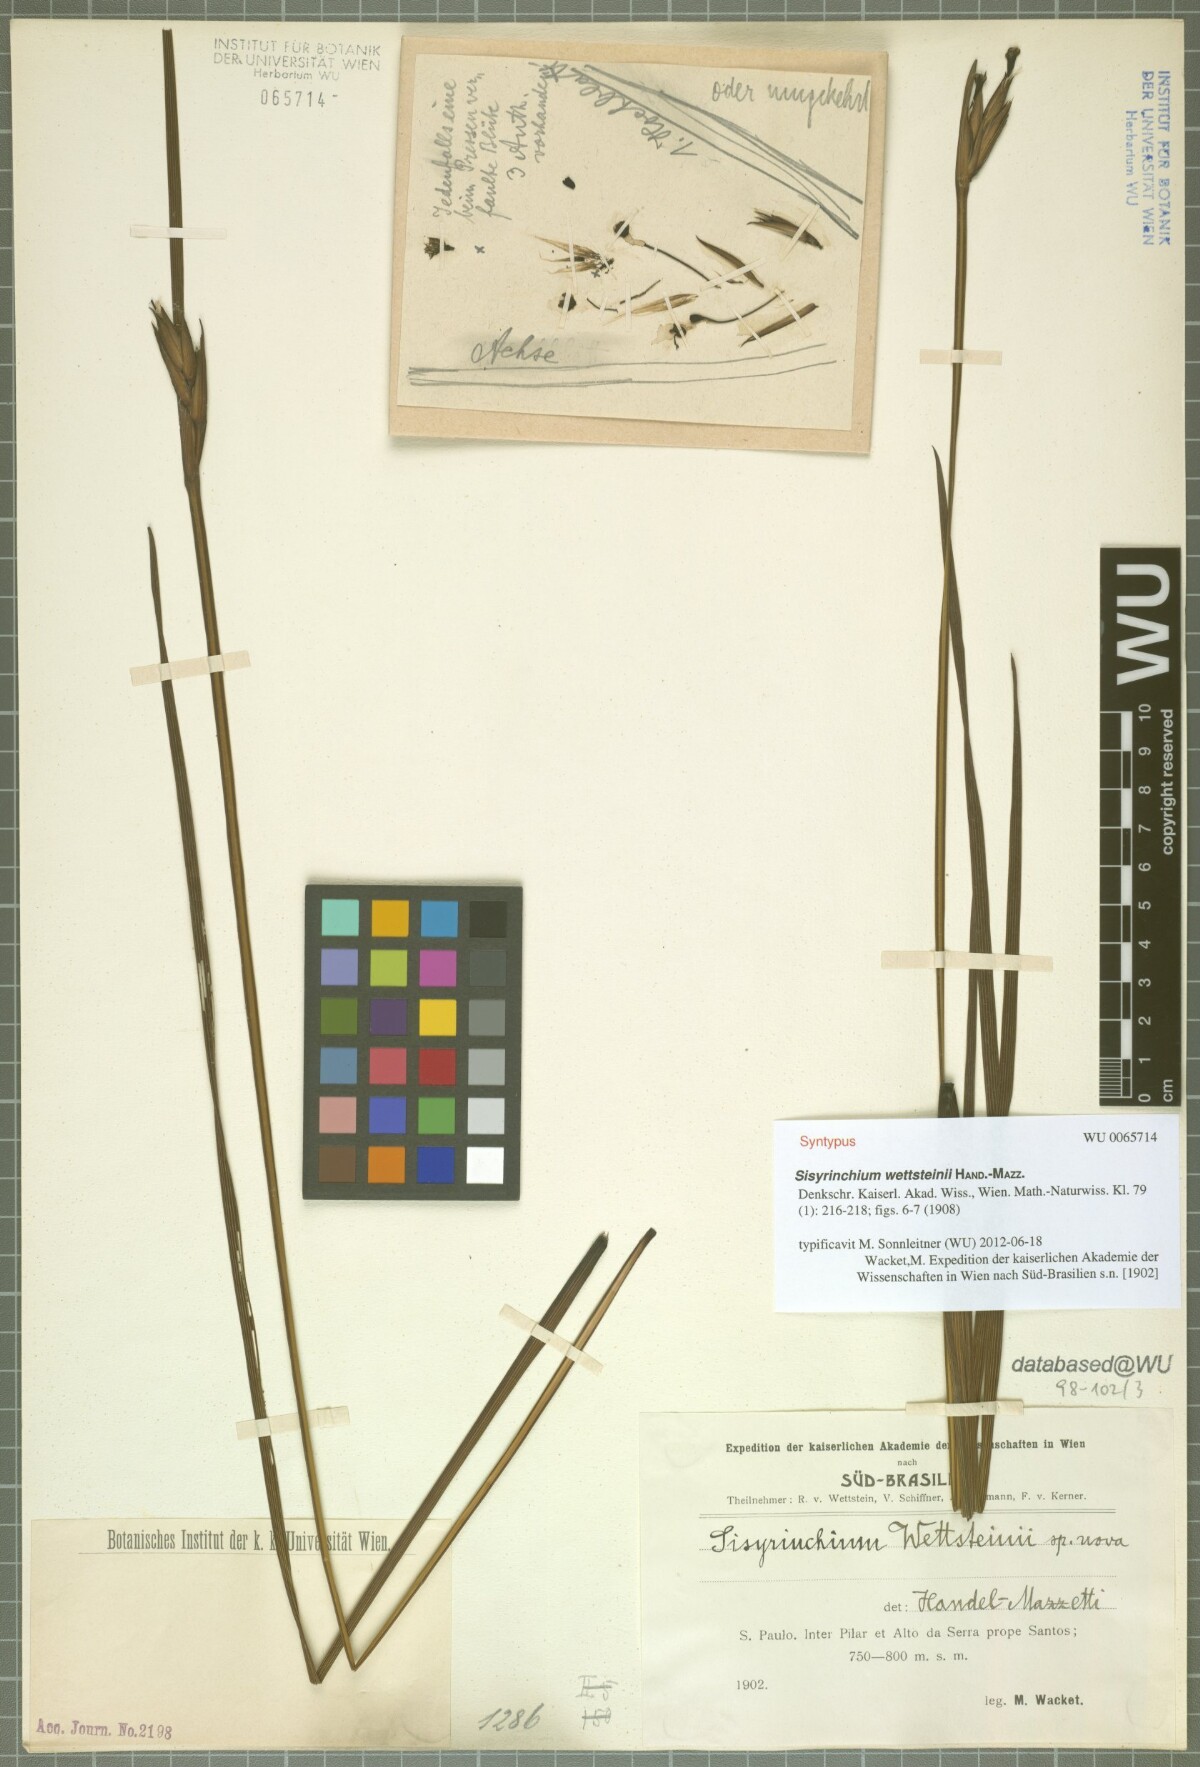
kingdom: Plantae
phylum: Tracheophyta
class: Liliopsida
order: Asparagales
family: Iridaceae
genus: Sisyrinchium
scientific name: Sisyrinchium wettsteinii
